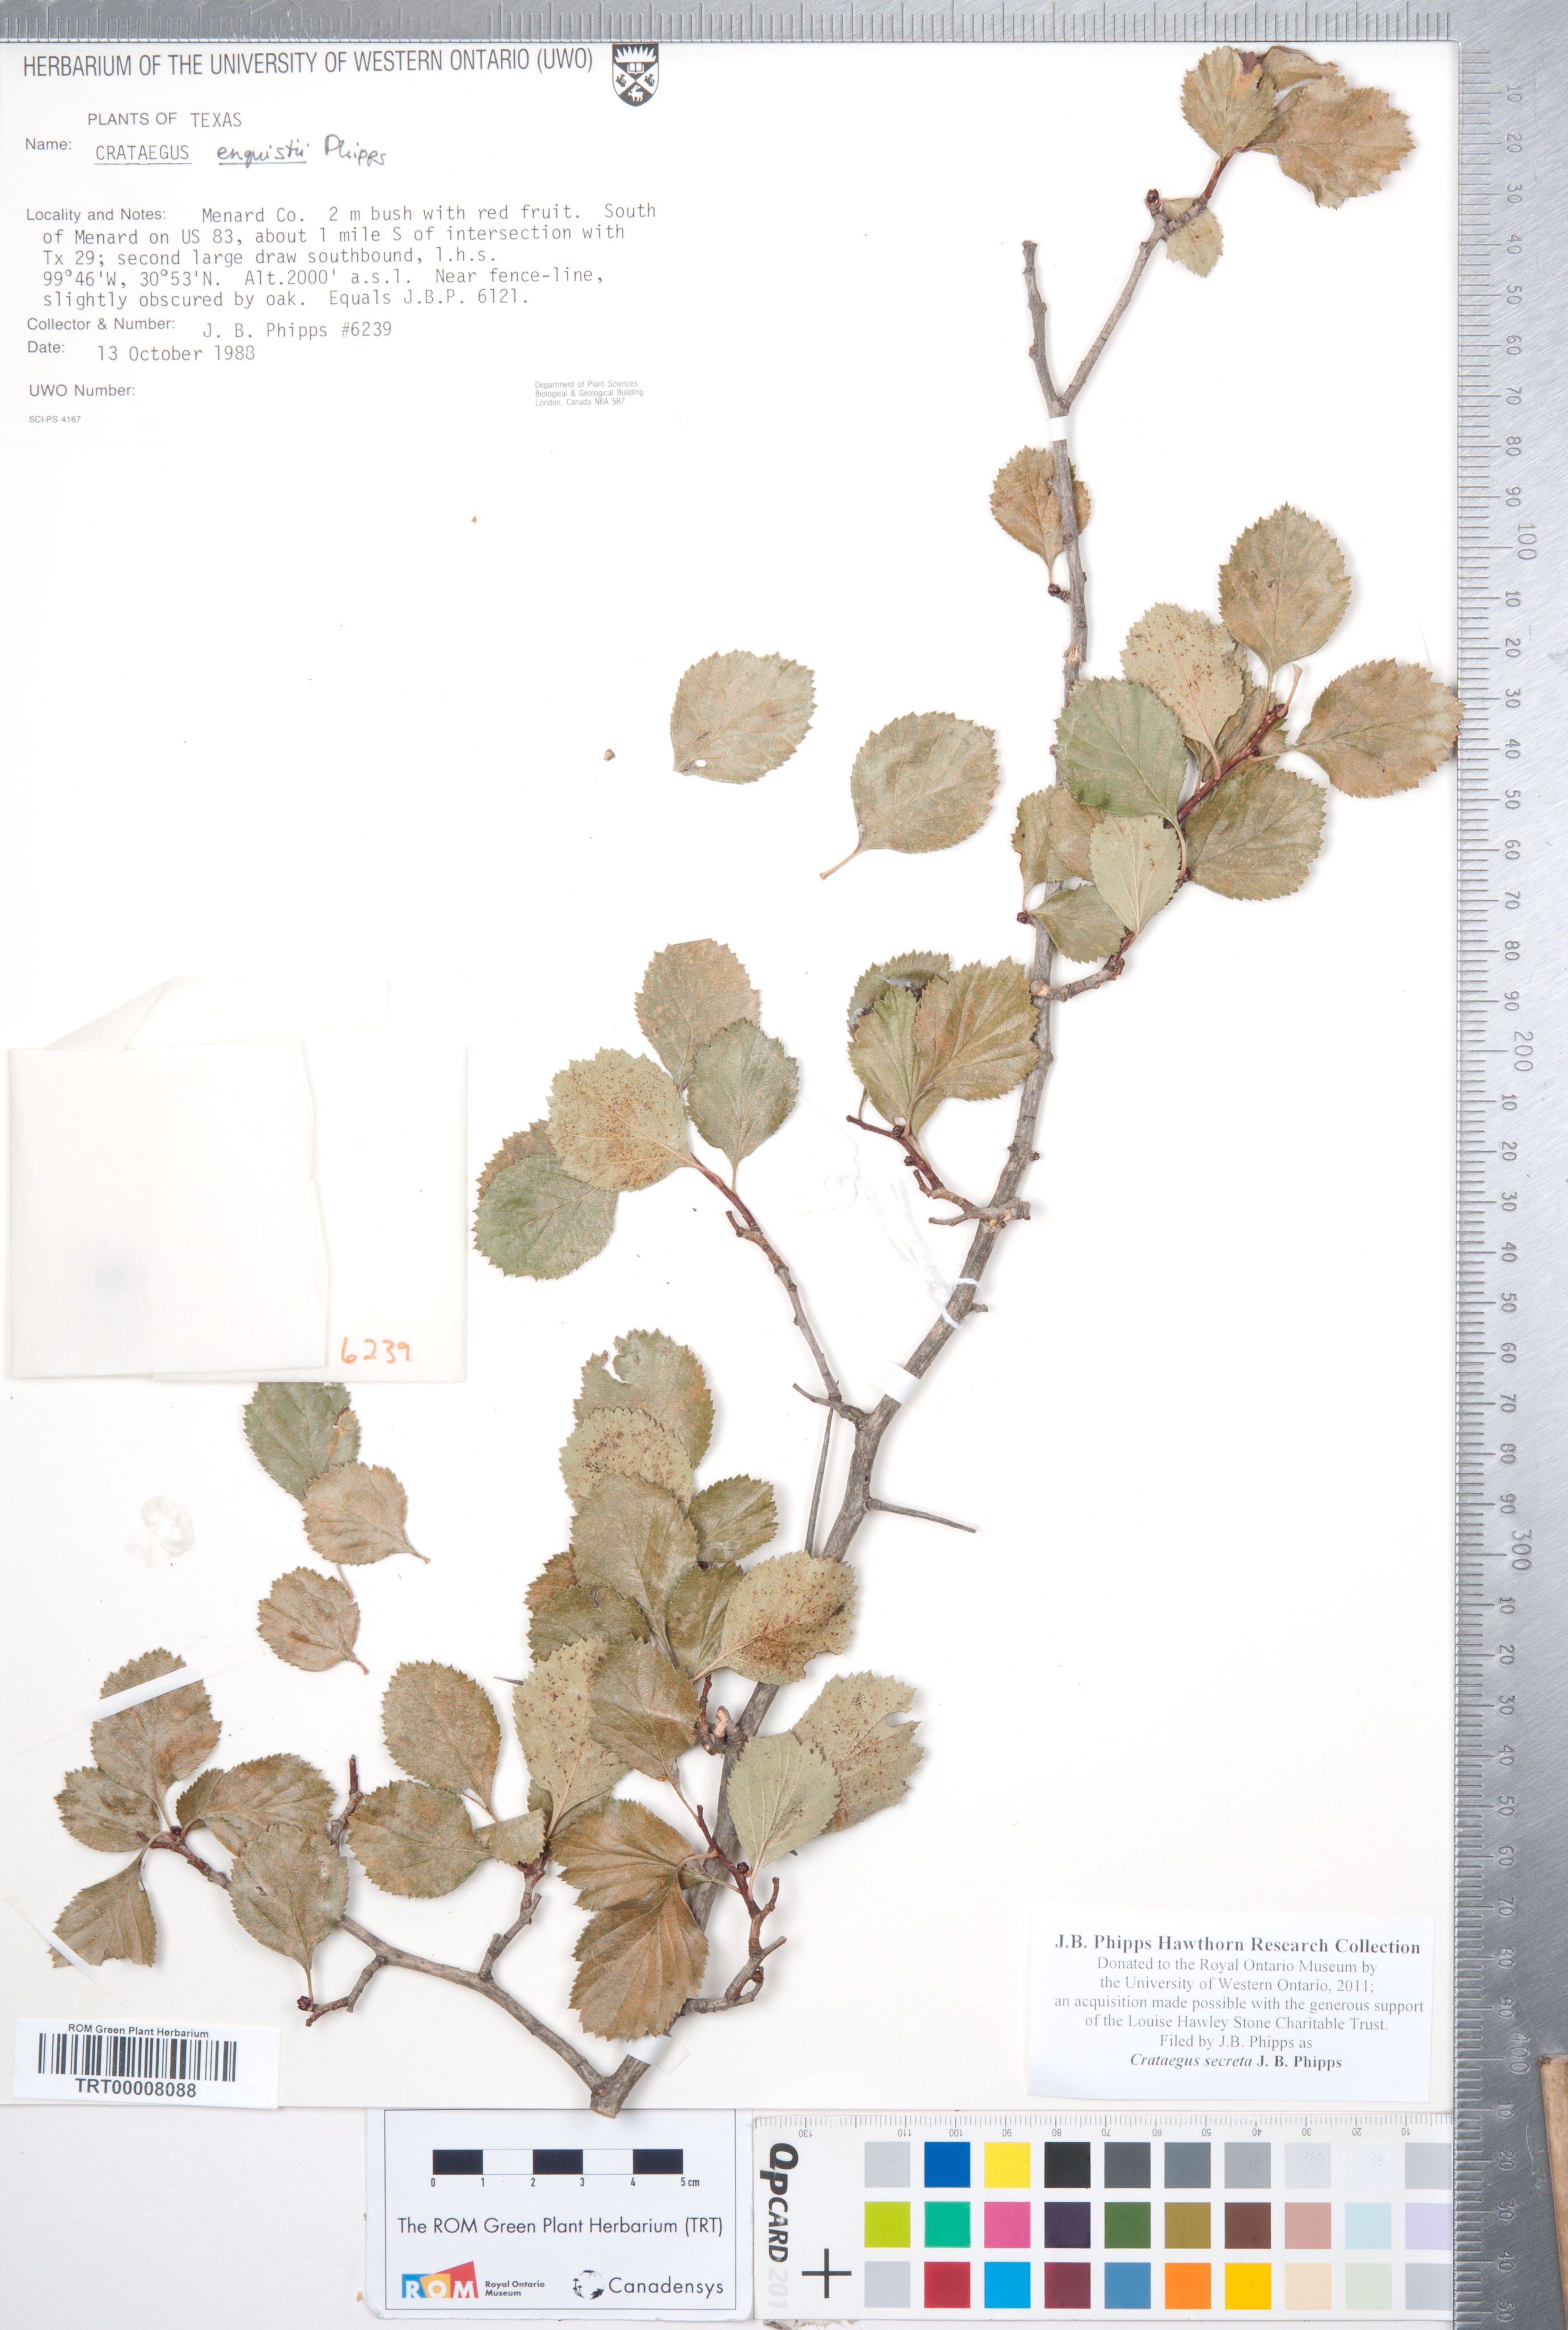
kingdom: Plantae
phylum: Tracheophyta
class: Magnoliopsida
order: Rosales
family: Rosaceae
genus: Crataegus
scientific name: Crataegus turnerorum
